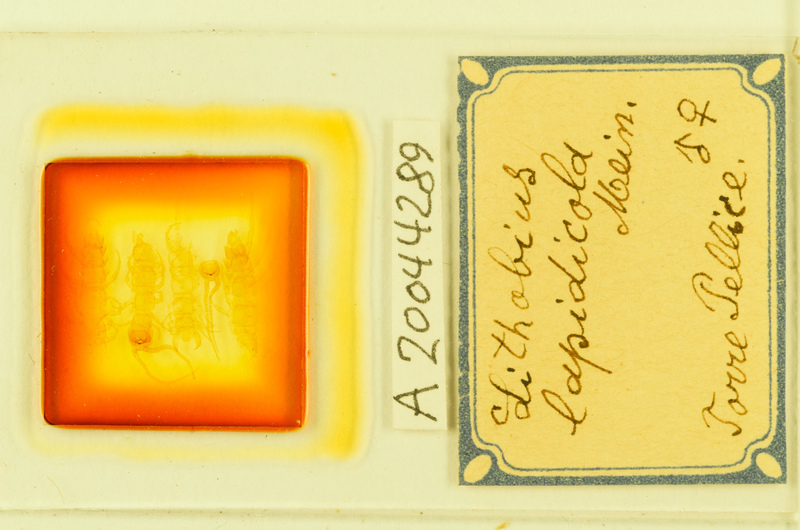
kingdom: Animalia
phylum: Arthropoda
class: Chilopoda
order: Lithobiomorpha
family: Lithobiidae
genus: Lithobius
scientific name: Lithobius lapidicola
